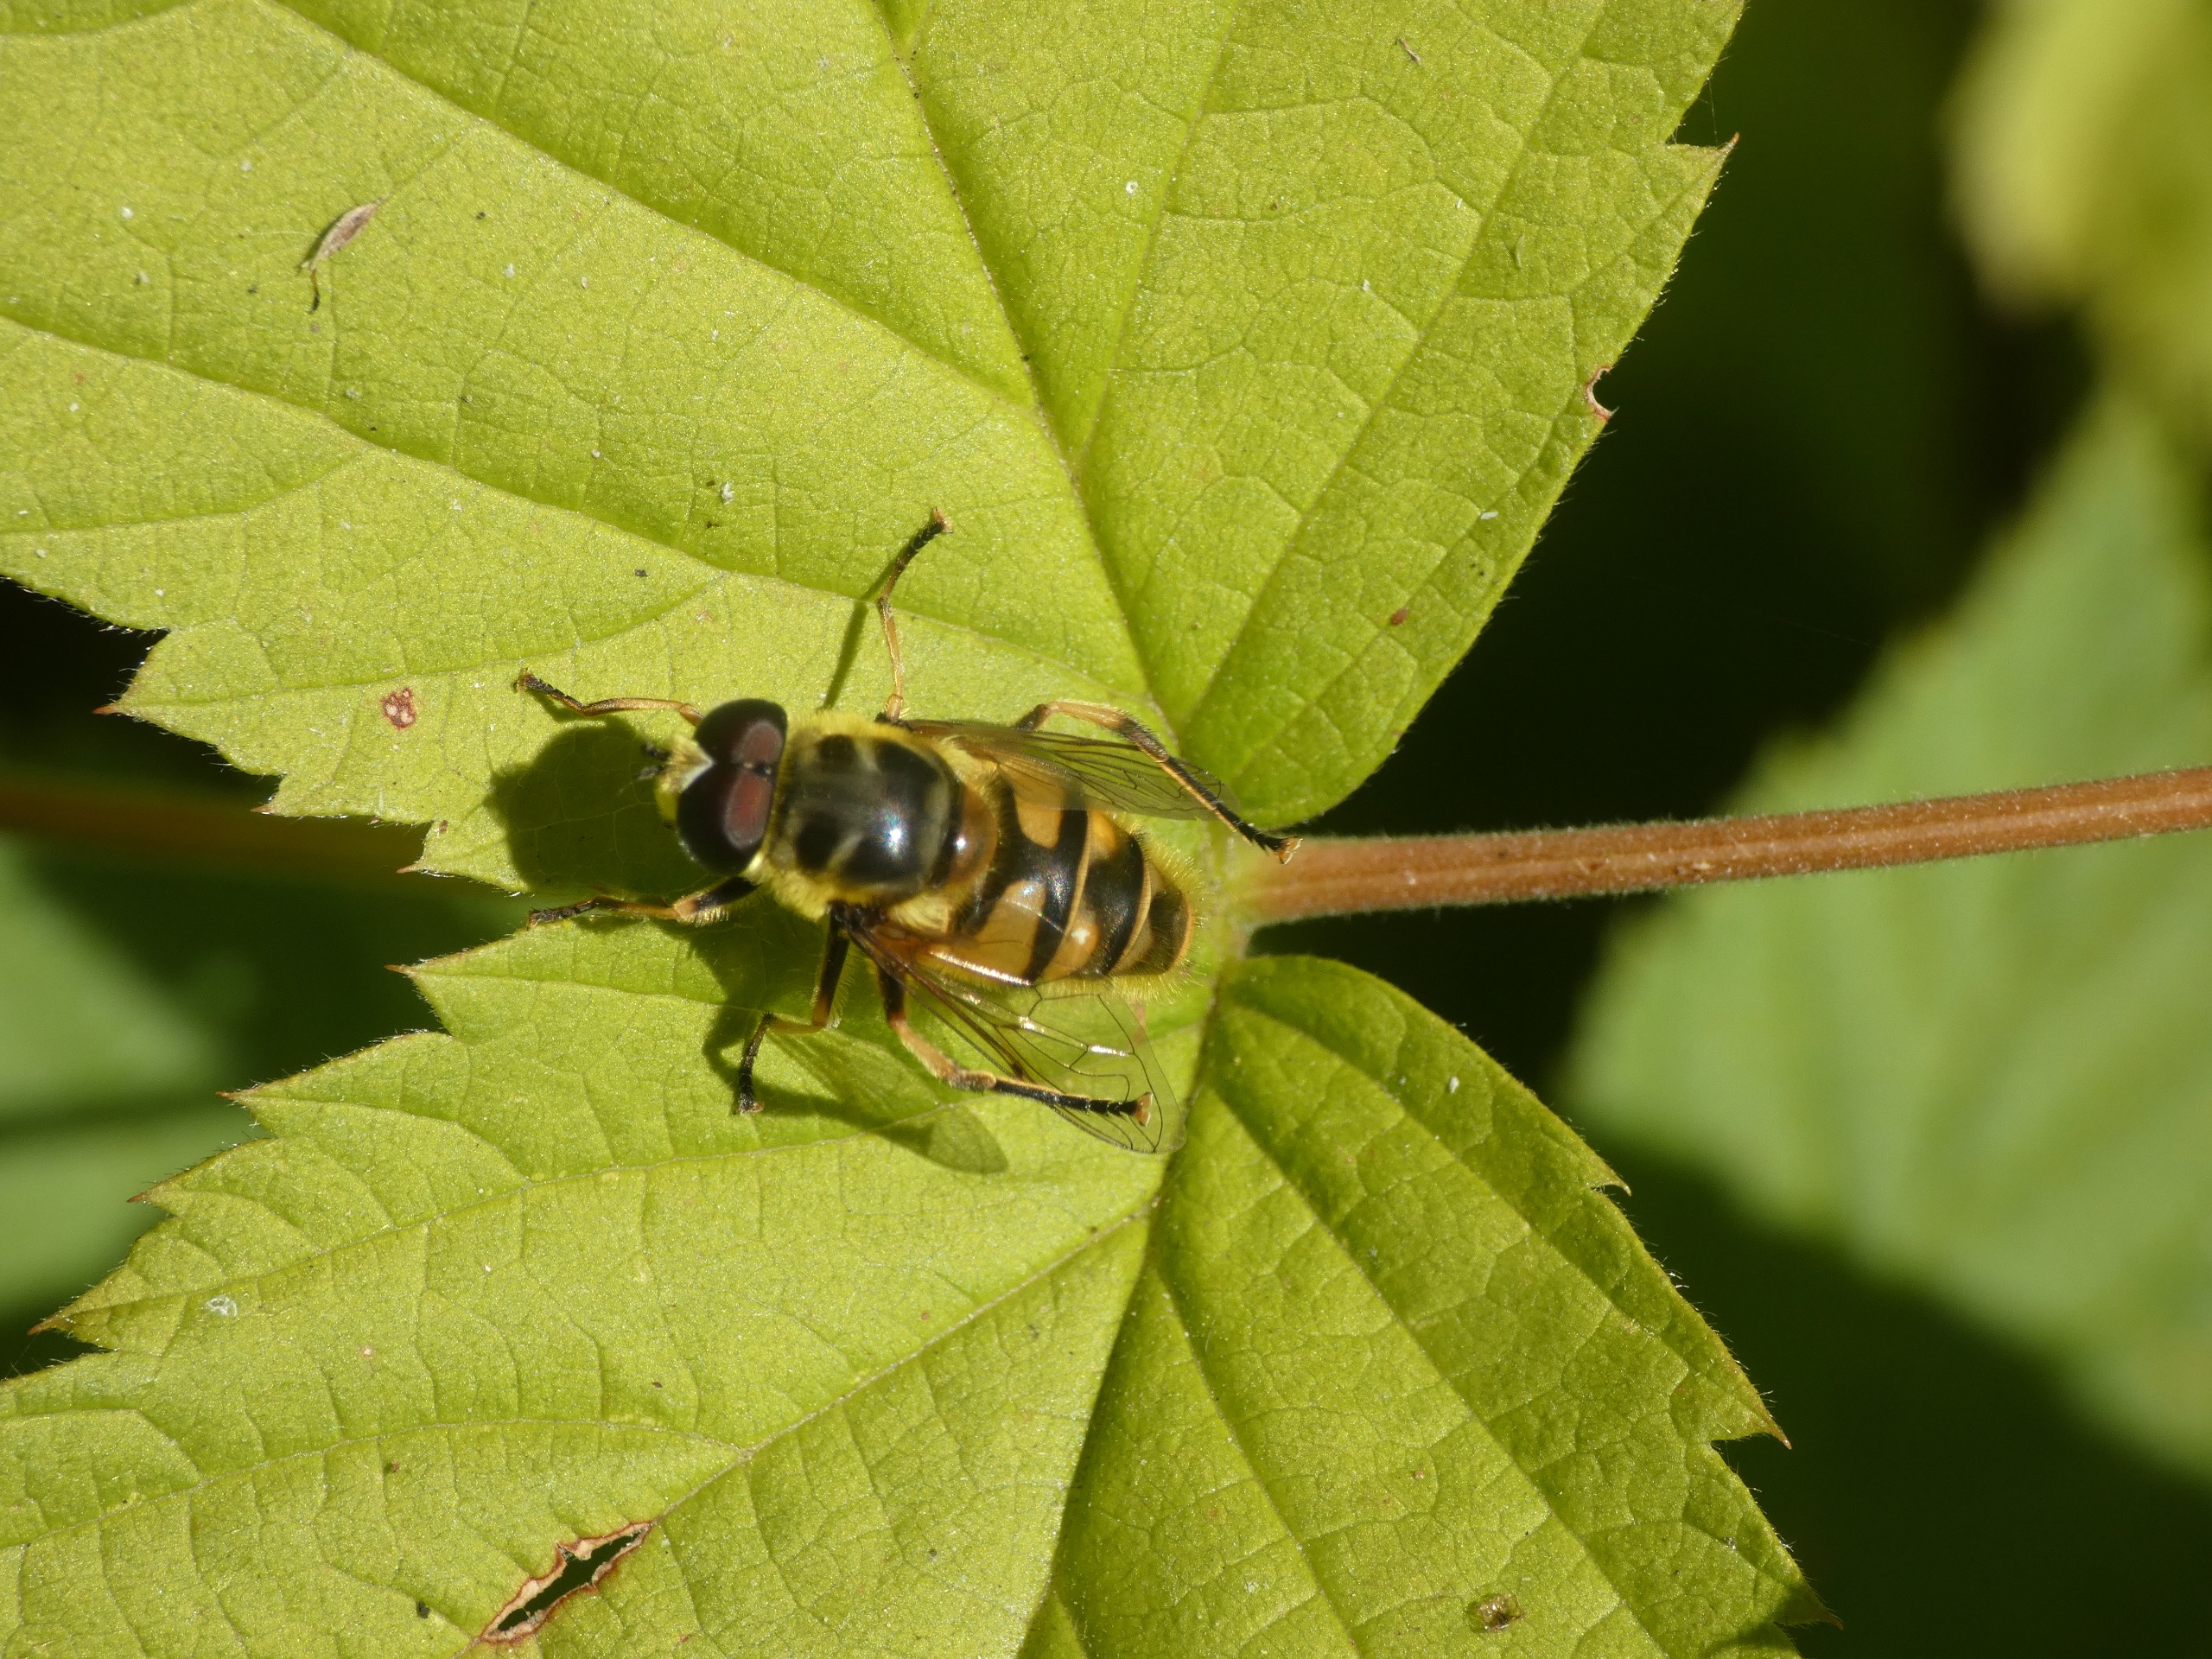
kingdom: Animalia
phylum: Arthropoda
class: Insecta
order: Diptera
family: Syrphidae
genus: Myathropa
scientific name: Myathropa florea
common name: Dødningehoved-svirreflue
